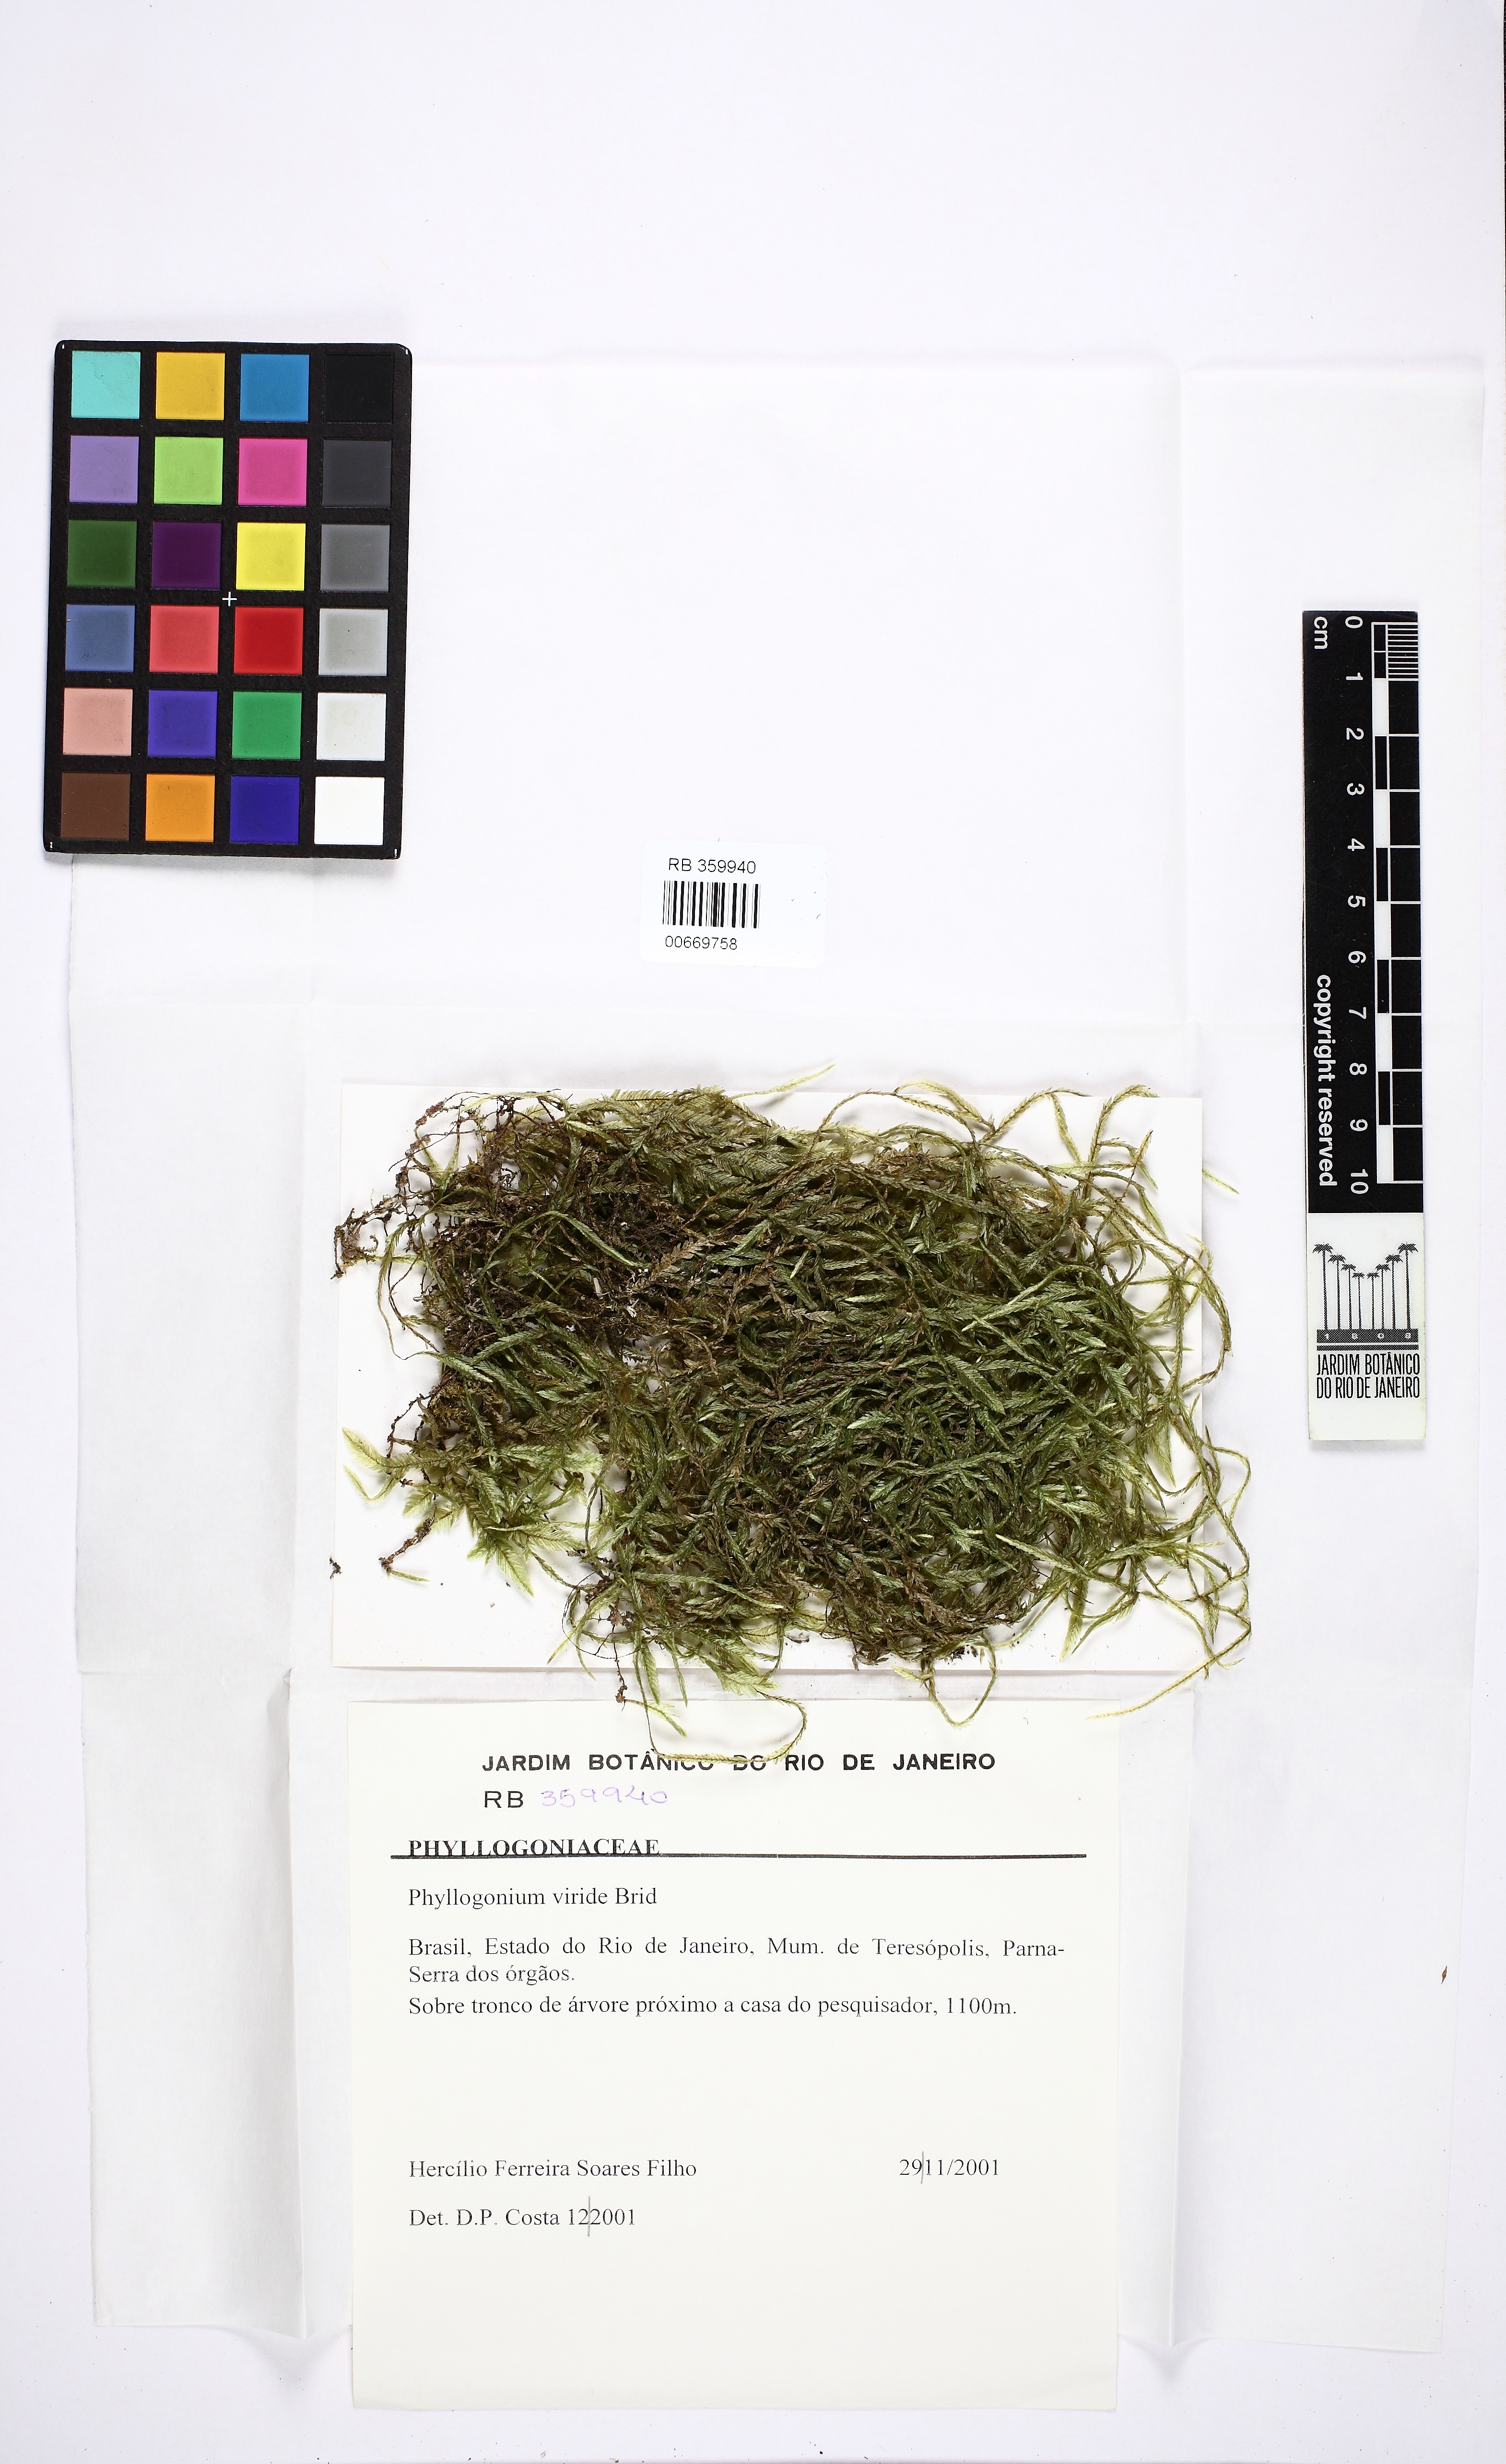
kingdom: Plantae
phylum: Bryophyta
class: Bryopsida
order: Hypnales
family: Phyllogoniaceae
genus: Phyllogonium
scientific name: Phyllogonium viride
